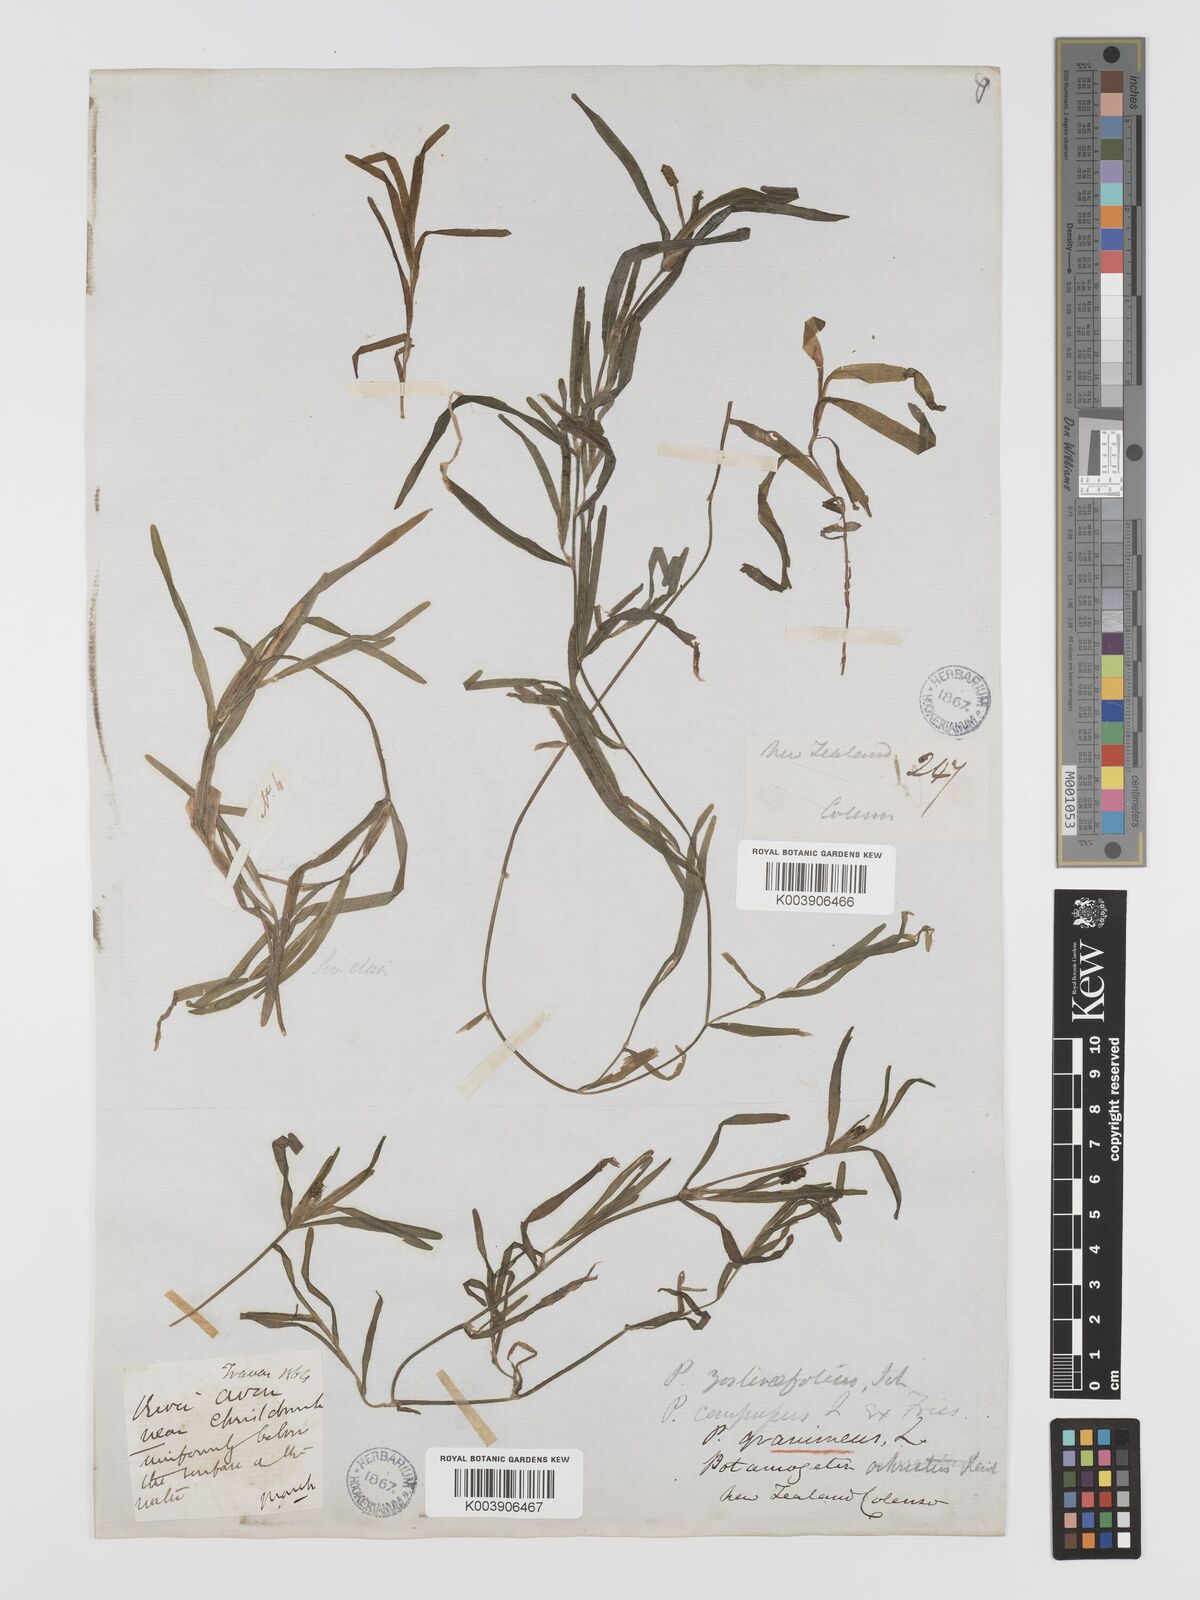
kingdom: Plantae
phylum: Tracheophyta
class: Liliopsida
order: Alismatales
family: Potamogetonaceae
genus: Potamogeton
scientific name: Potamogeton ochreatus
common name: Blunt pondweed
